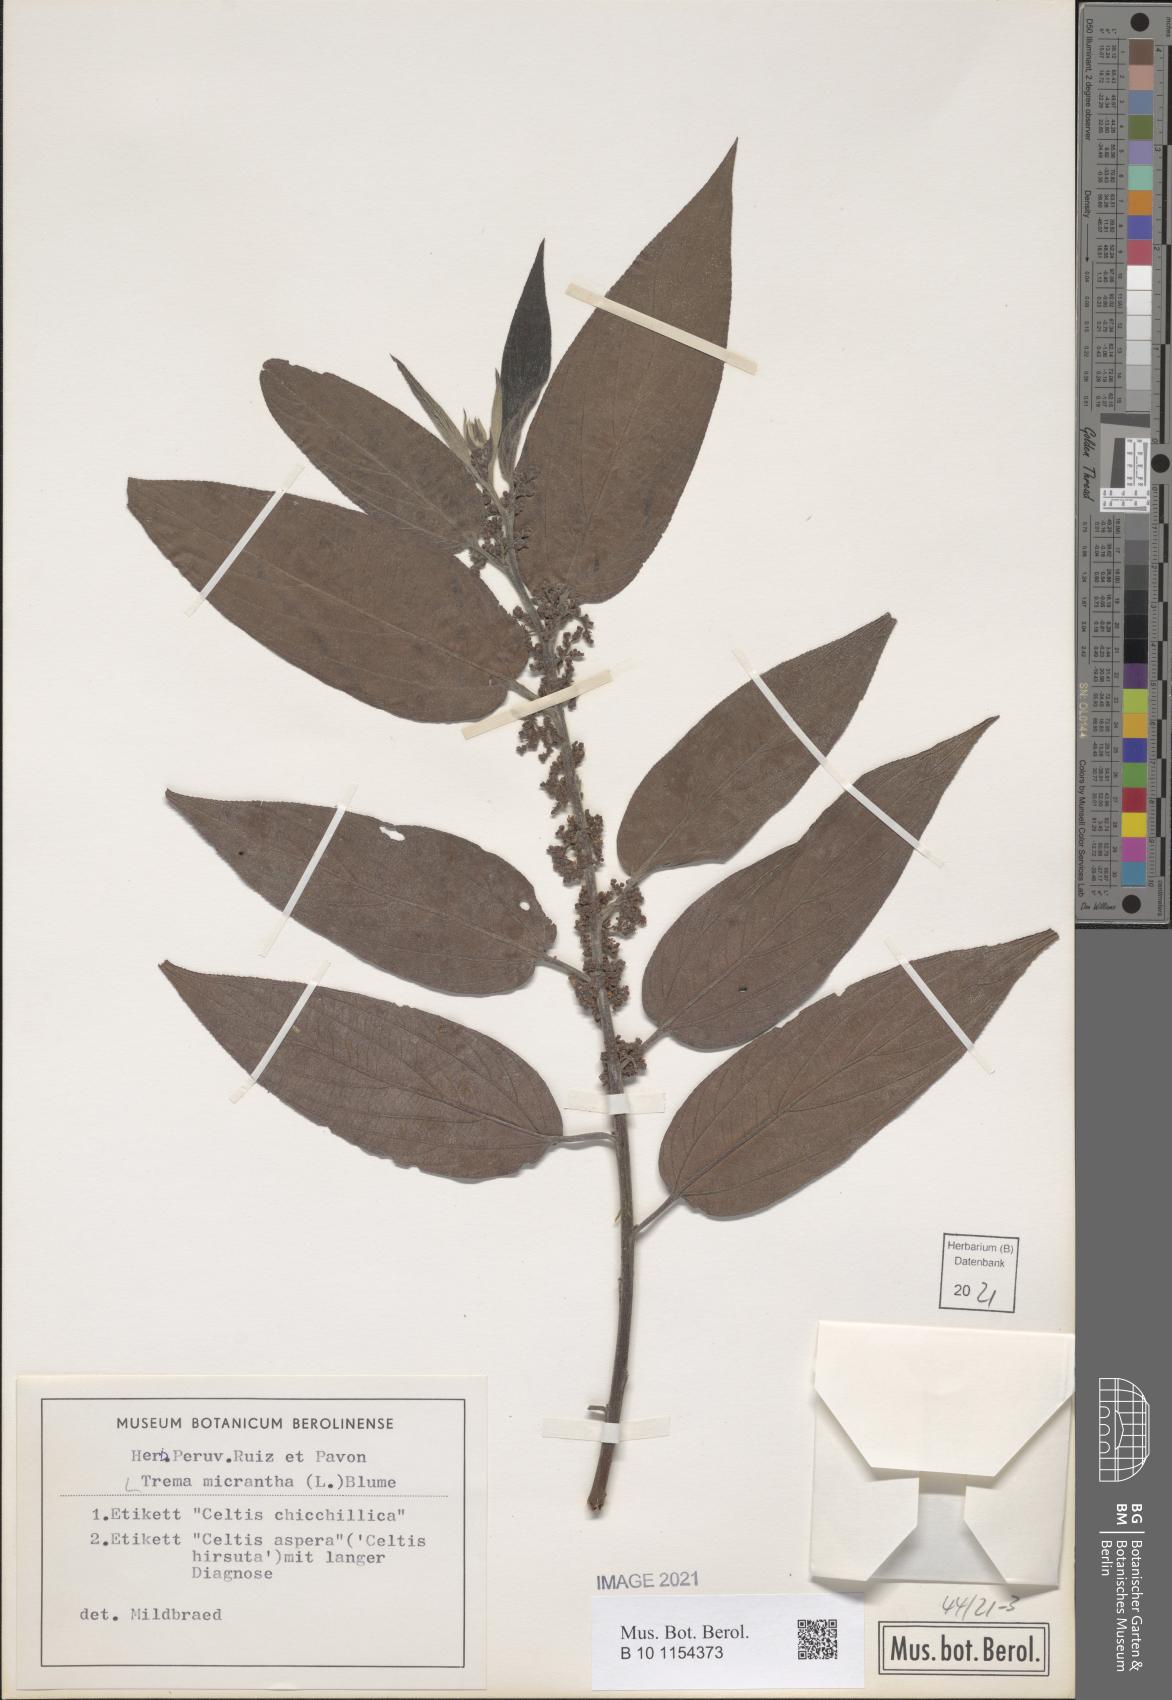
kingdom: Plantae
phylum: Tracheophyta
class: Magnoliopsida
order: Rosales
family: Cannabaceae
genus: Trema
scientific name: Trema micranthum
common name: Jamaican nettletree
